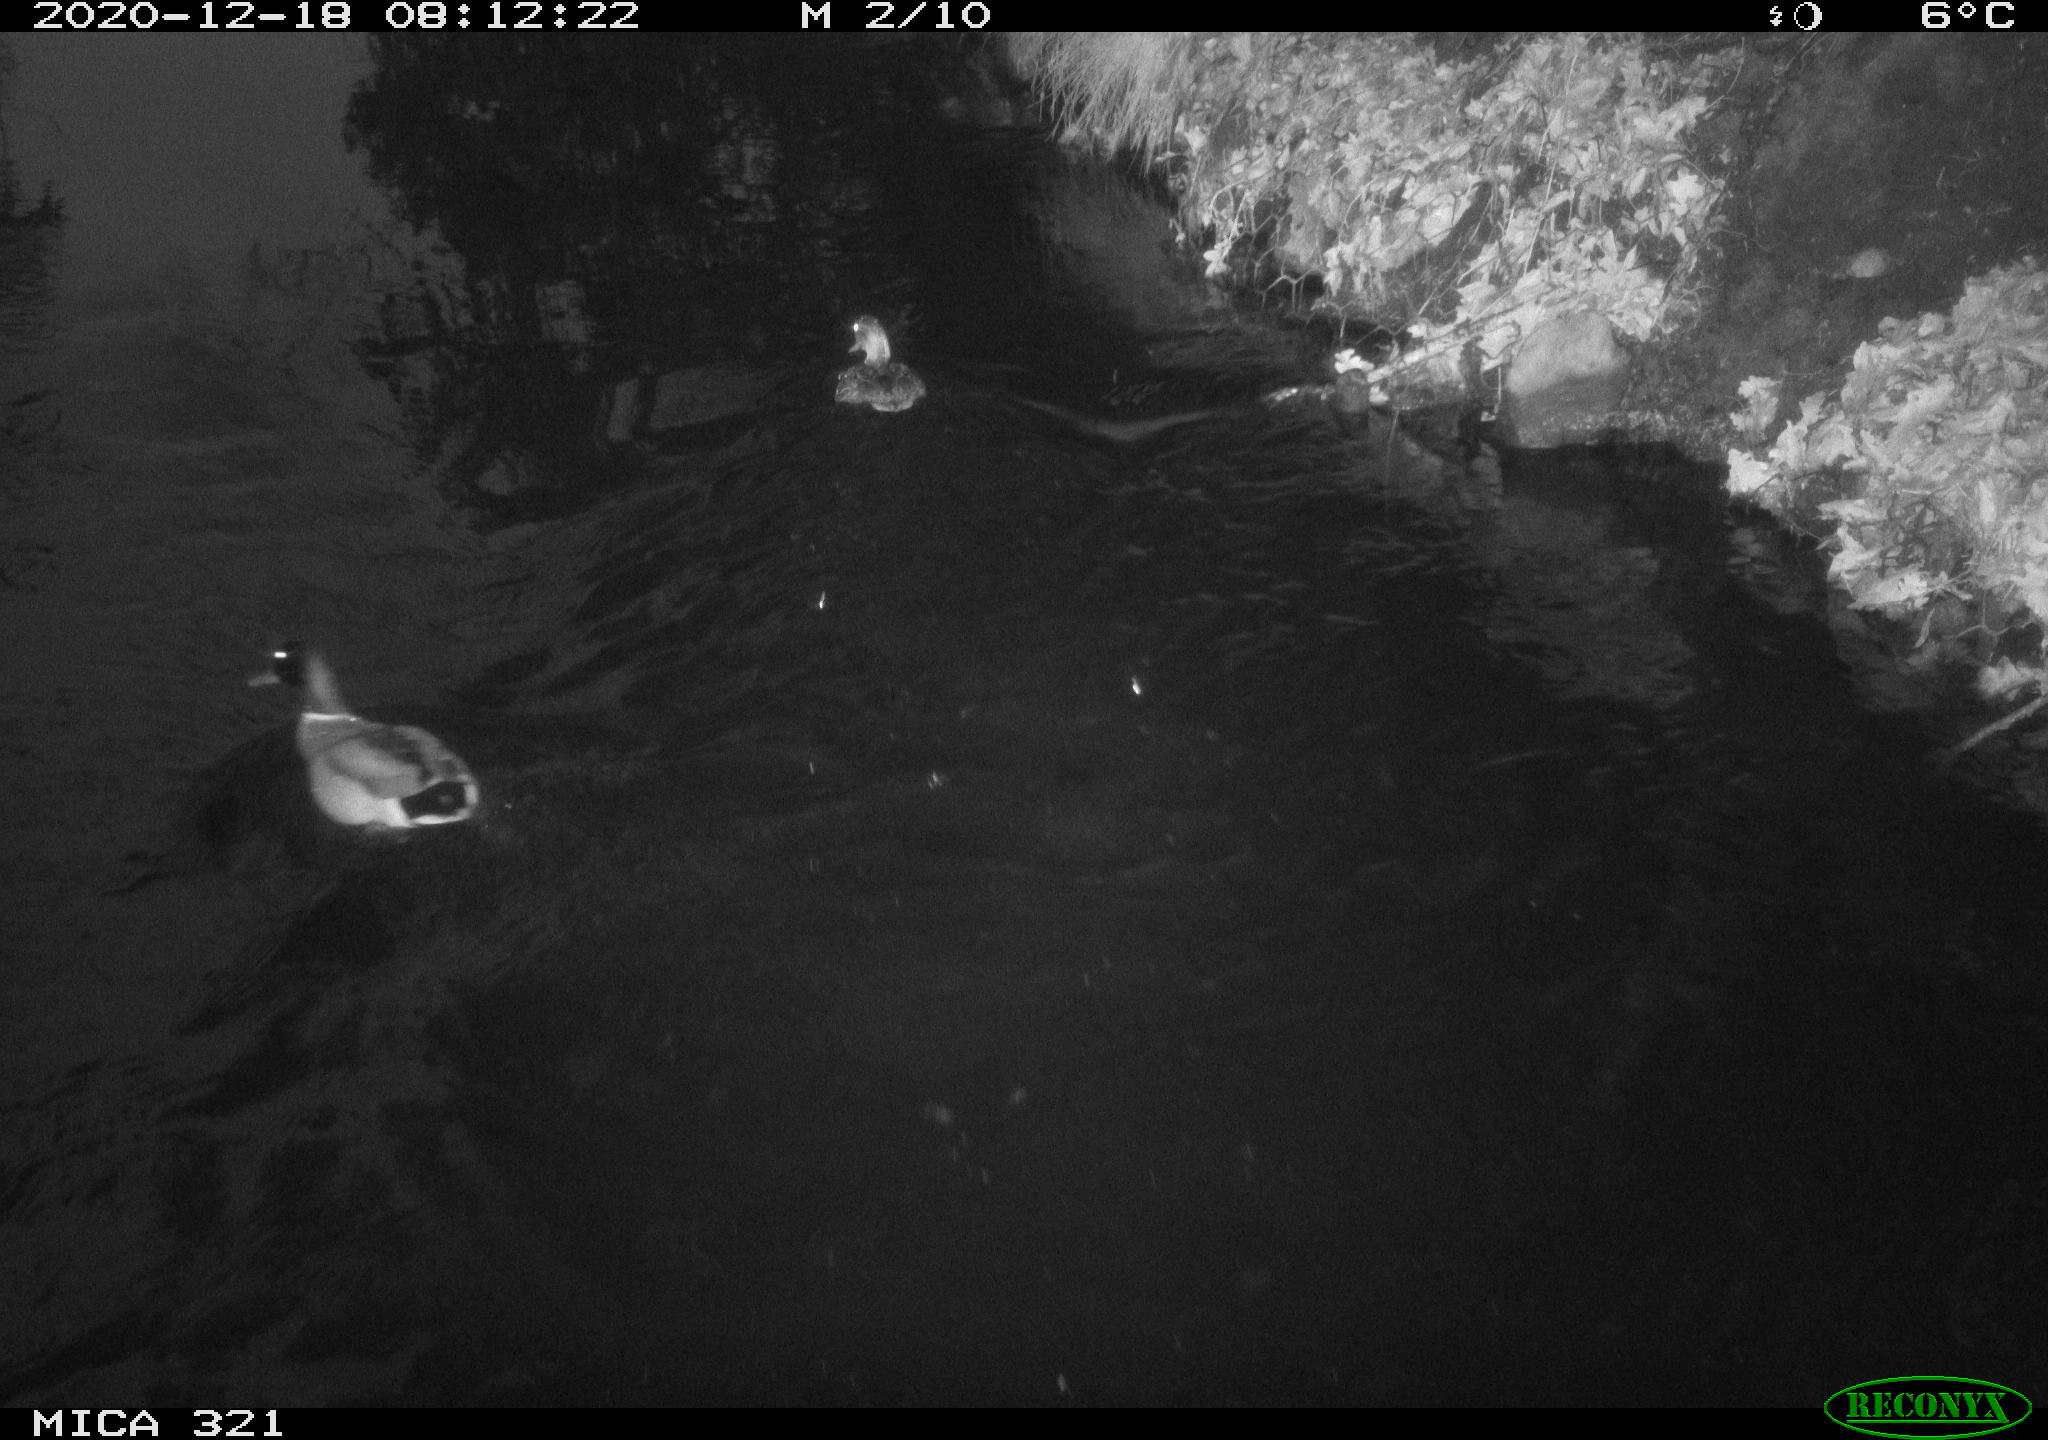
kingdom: Animalia
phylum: Chordata
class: Aves
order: Anseriformes
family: Anatidae
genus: Anas
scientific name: Anas platyrhynchos
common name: Mallard
